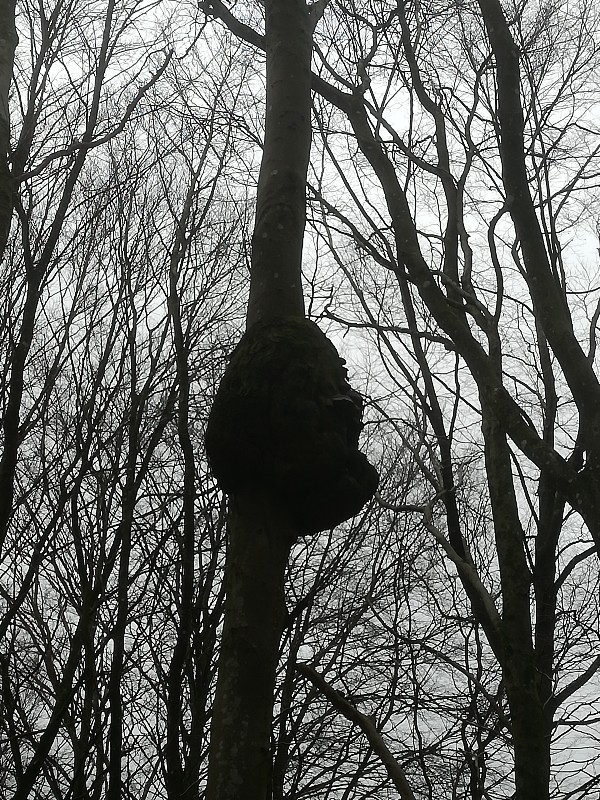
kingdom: Fungi
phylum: Basidiomycota
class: Agaricomycetes
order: Polyporales
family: Polyporaceae
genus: Fomes
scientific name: Fomes fomentarius
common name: tøndersvamp
